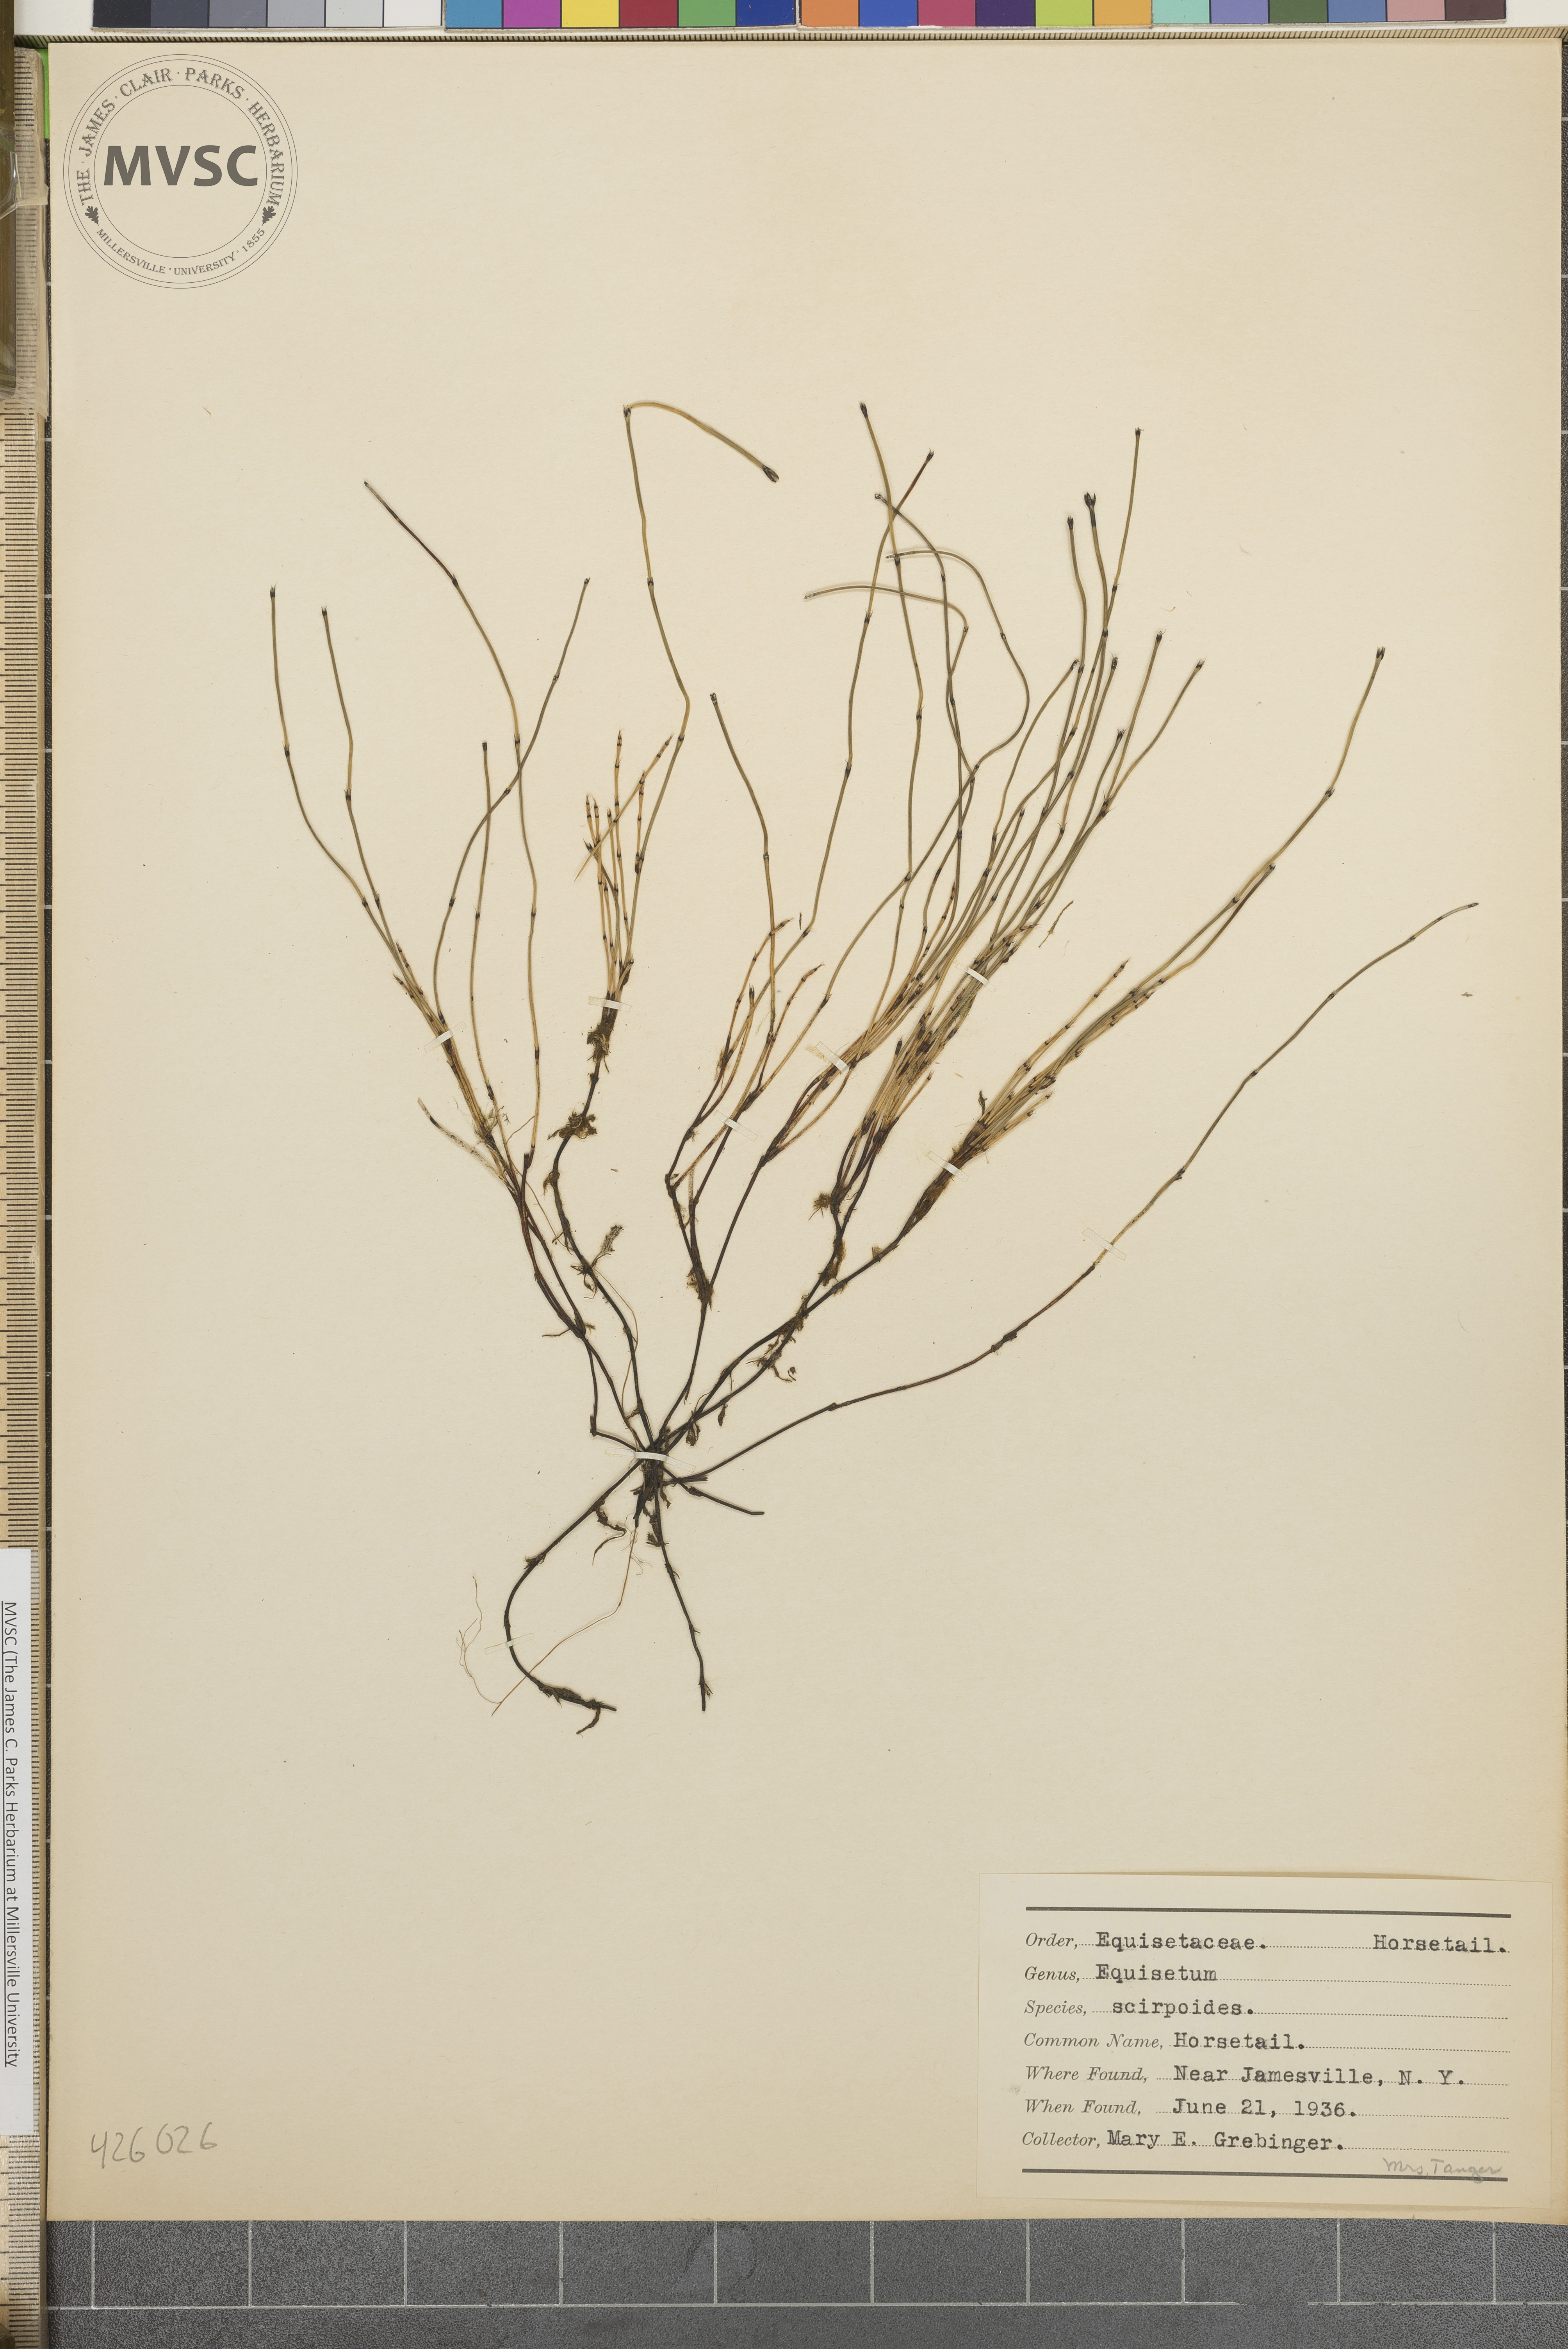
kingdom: Plantae
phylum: Tracheophyta
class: Polypodiopsida
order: Equisetales
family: Equisetaceae
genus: Equisetum
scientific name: Equisetum scirpoides
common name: Horsetail
